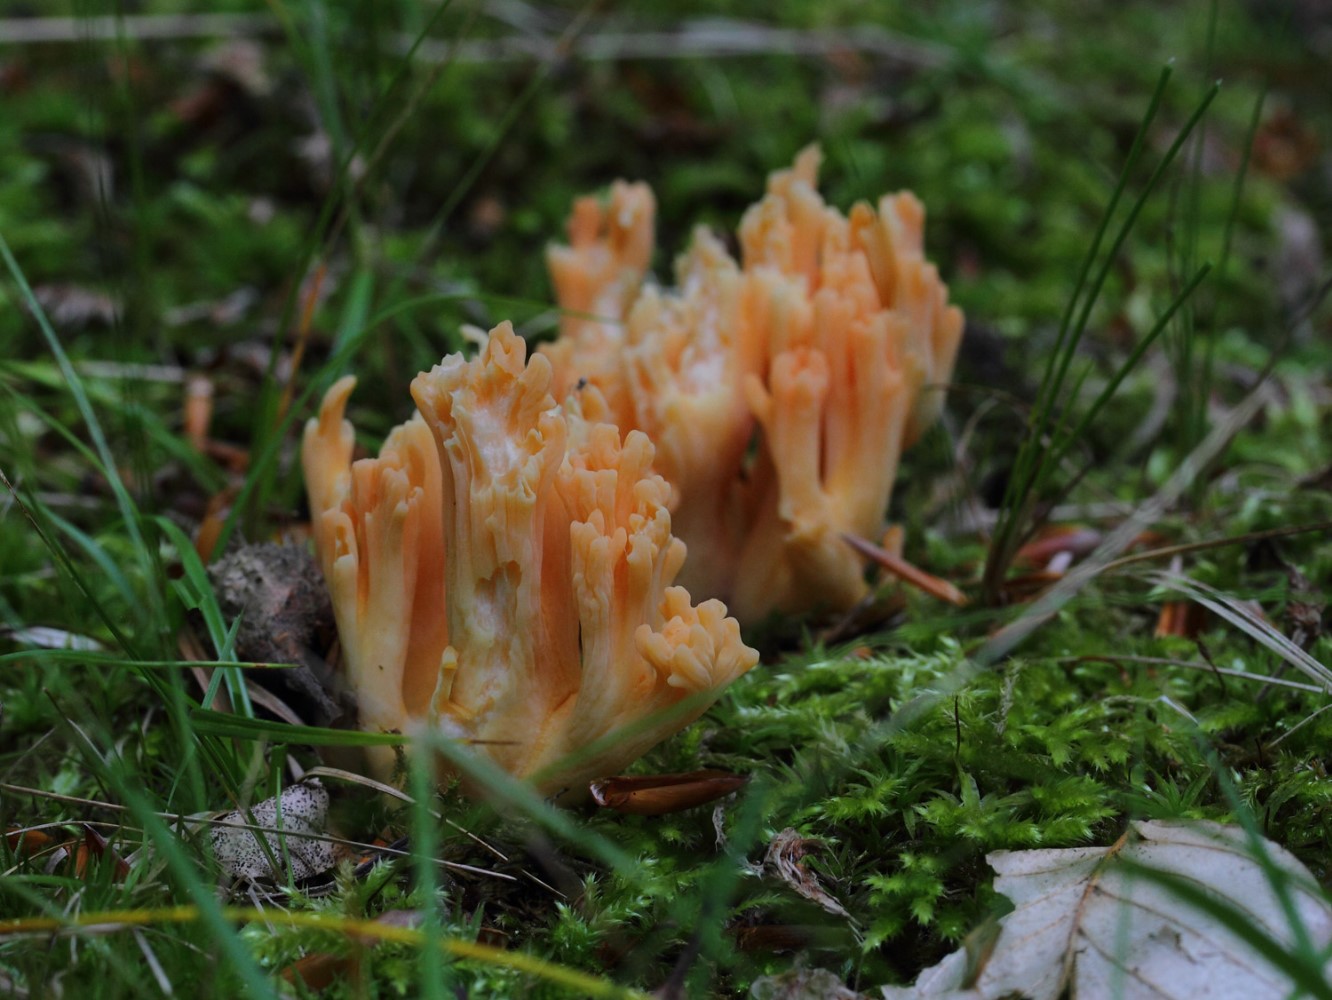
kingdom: Fungi
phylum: Basidiomycota
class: Agaricomycetes
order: Gomphales
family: Gomphaceae
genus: Ramaria
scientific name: Ramaria
